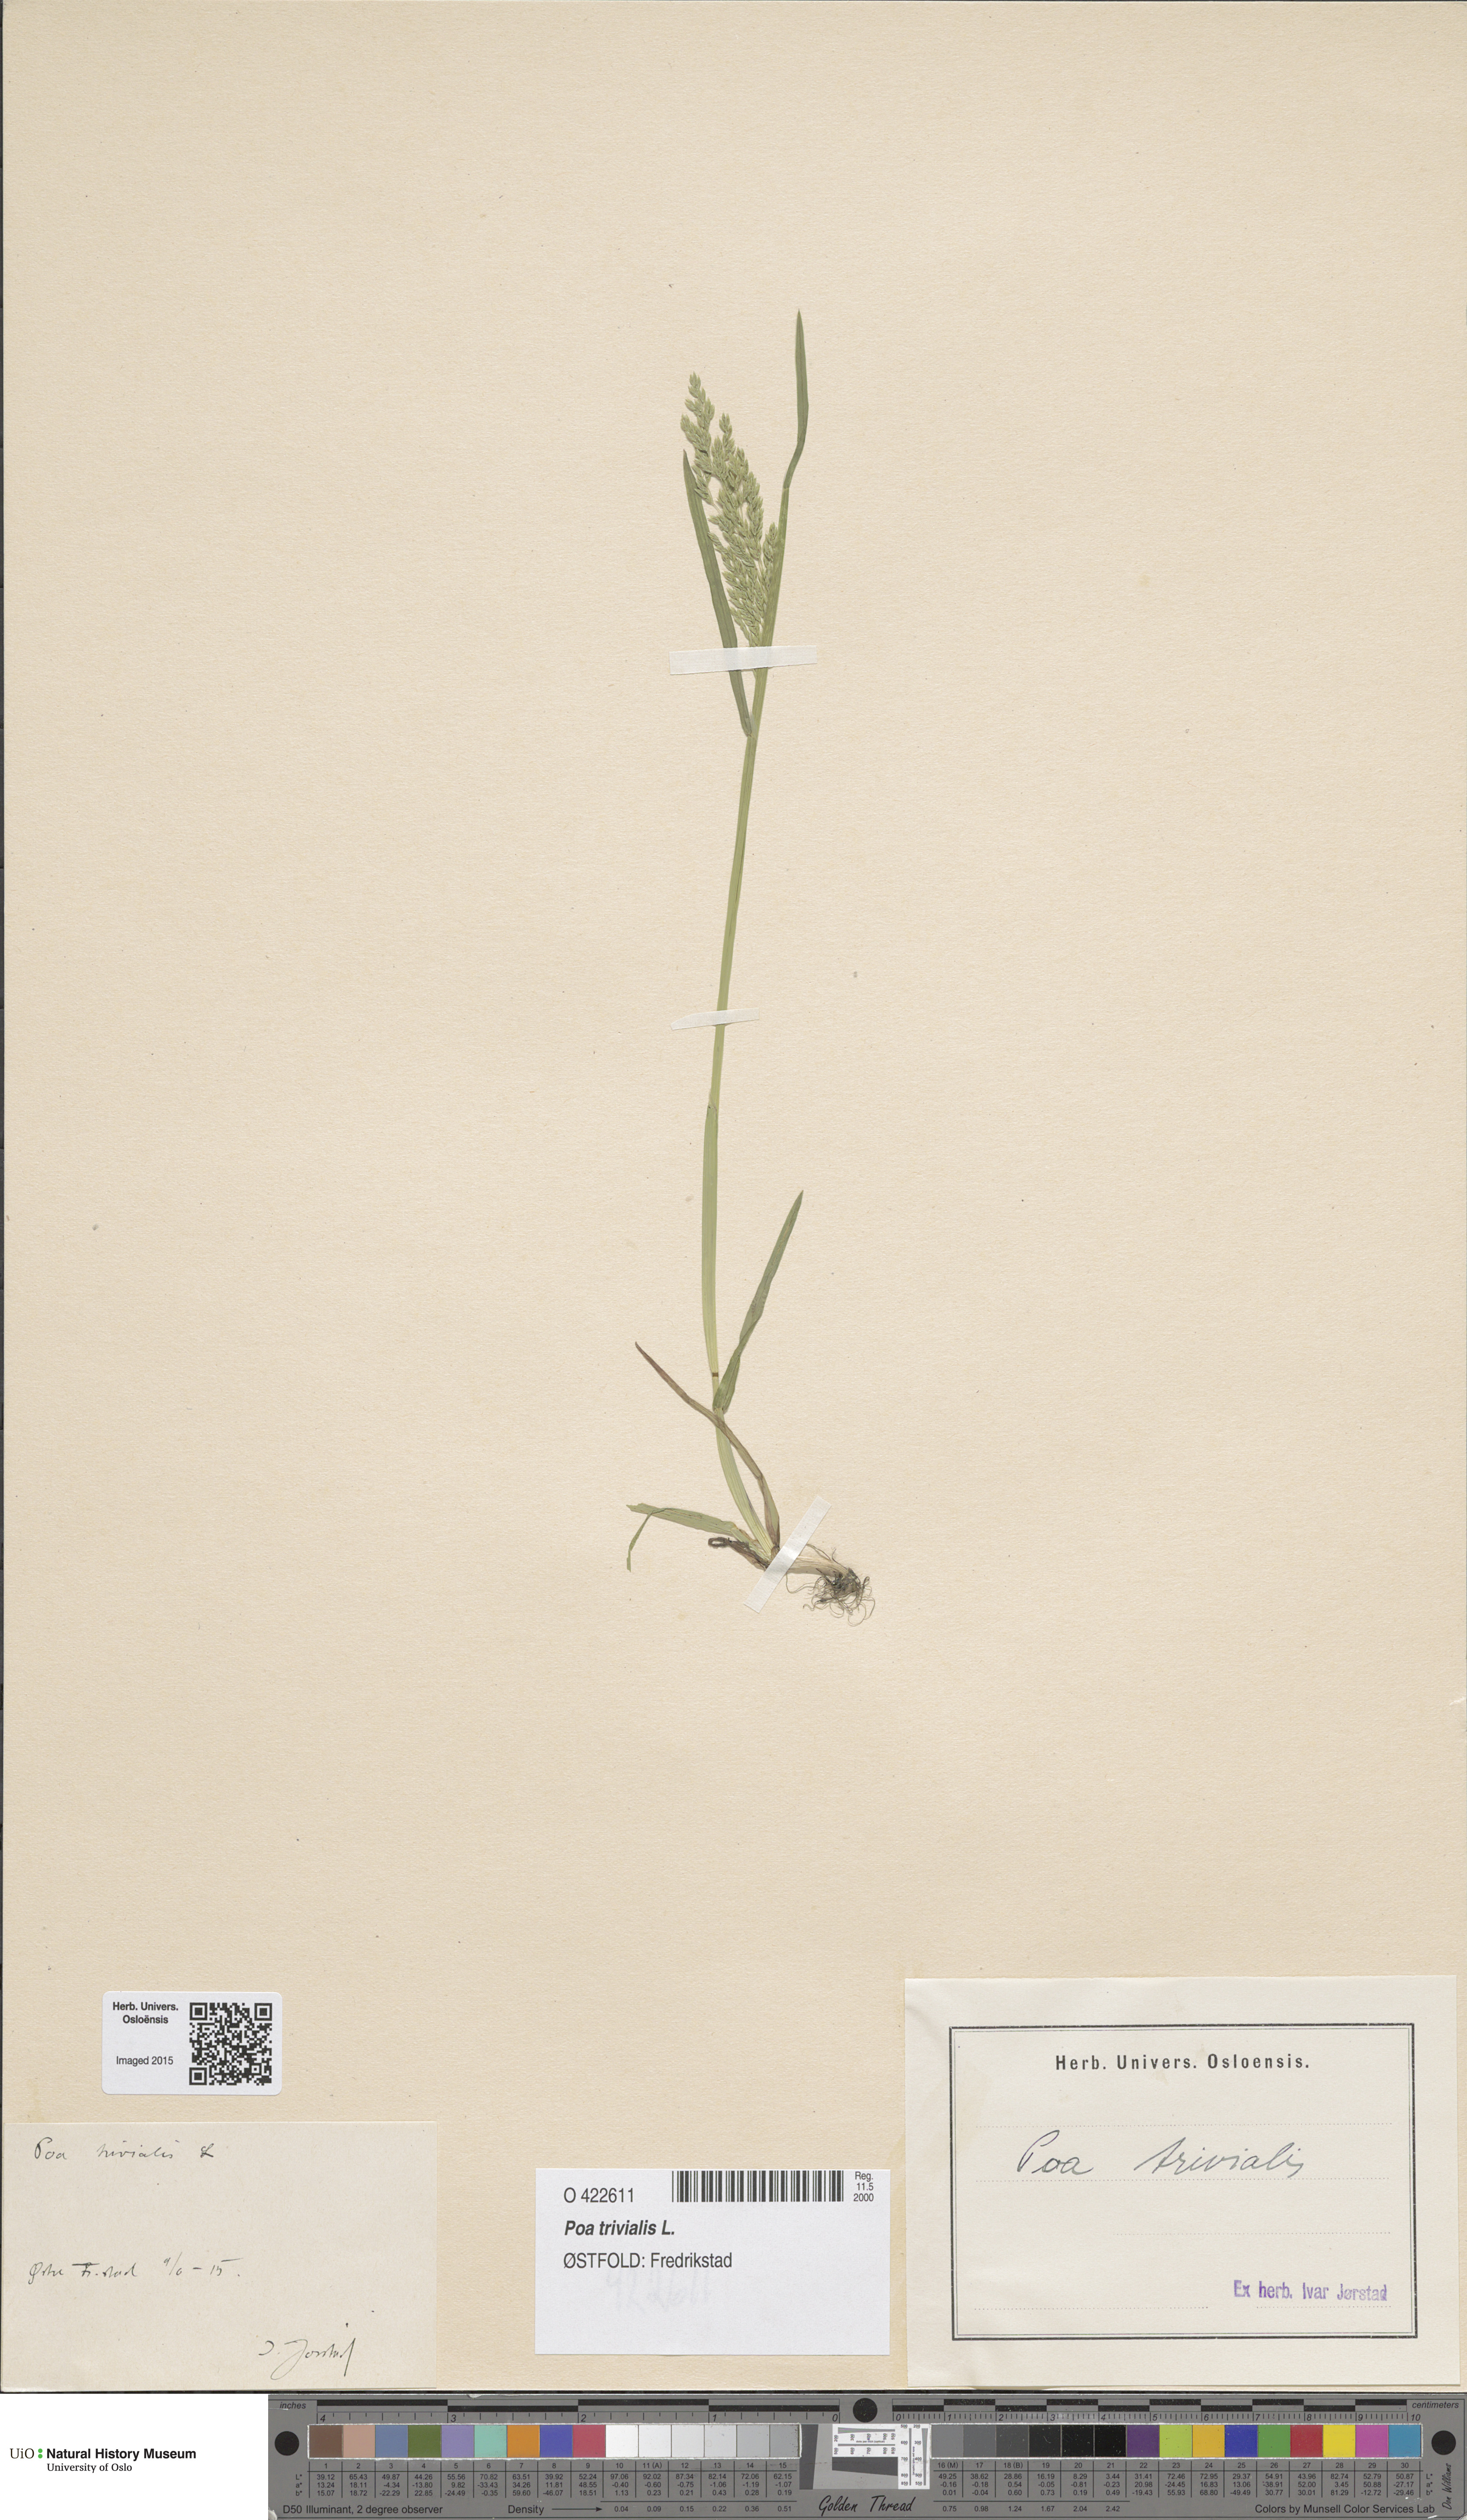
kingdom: Plantae
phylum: Tracheophyta
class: Liliopsida
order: Poales
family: Poaceae
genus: Poa
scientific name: Poa trivialis
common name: Rough bluegrass
